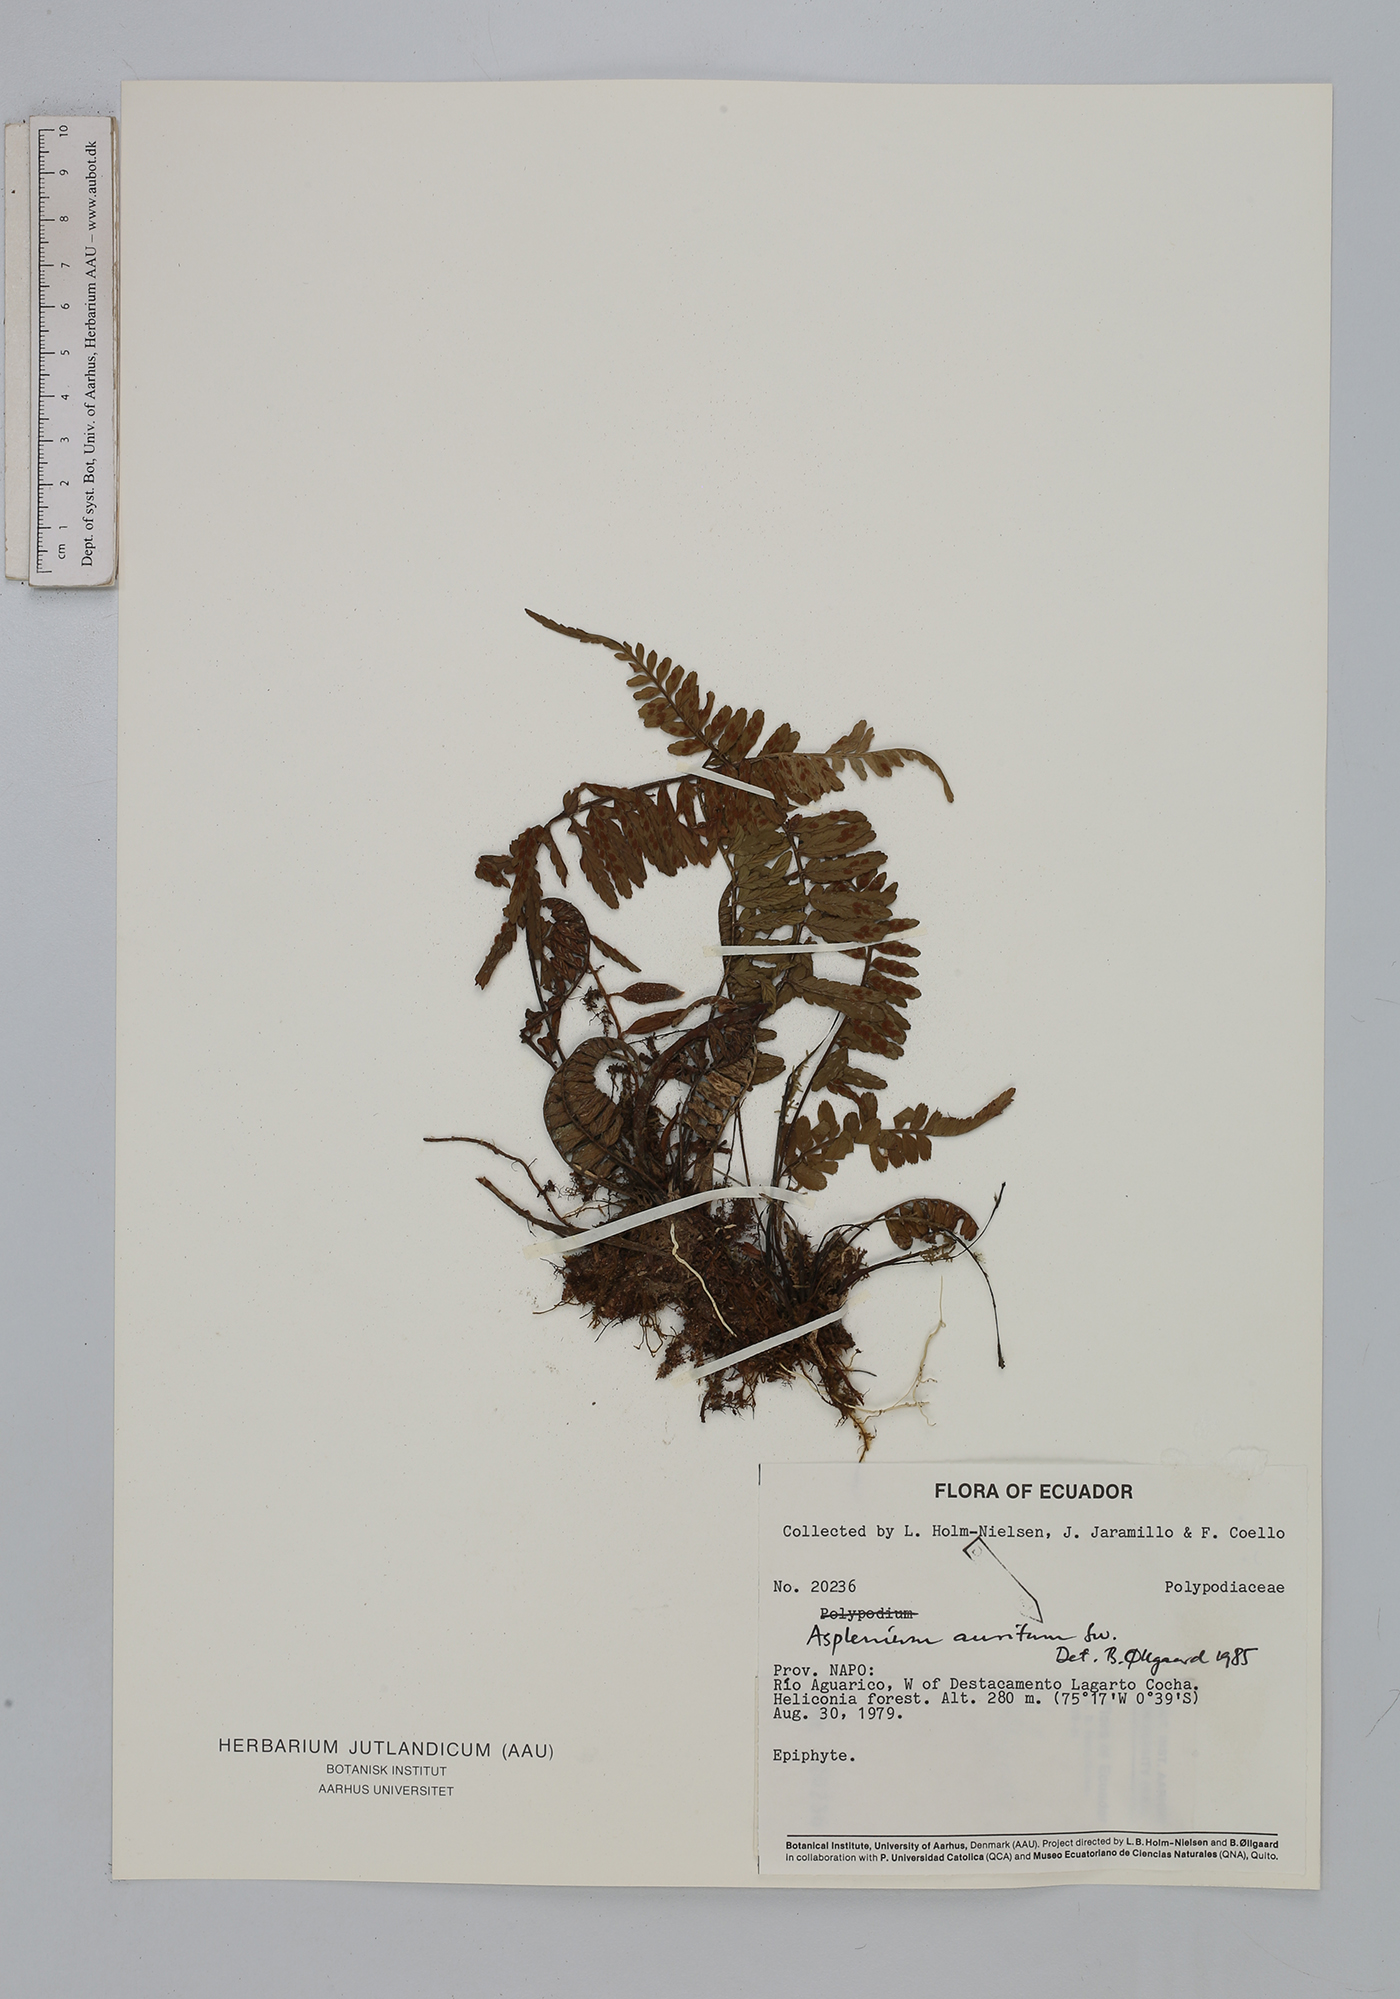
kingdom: Plantae
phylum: Tracheophyta
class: Polypodiopsida
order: Polypodiales
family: Aspleniaceae
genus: Asplenium
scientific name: Asplenium auritum
